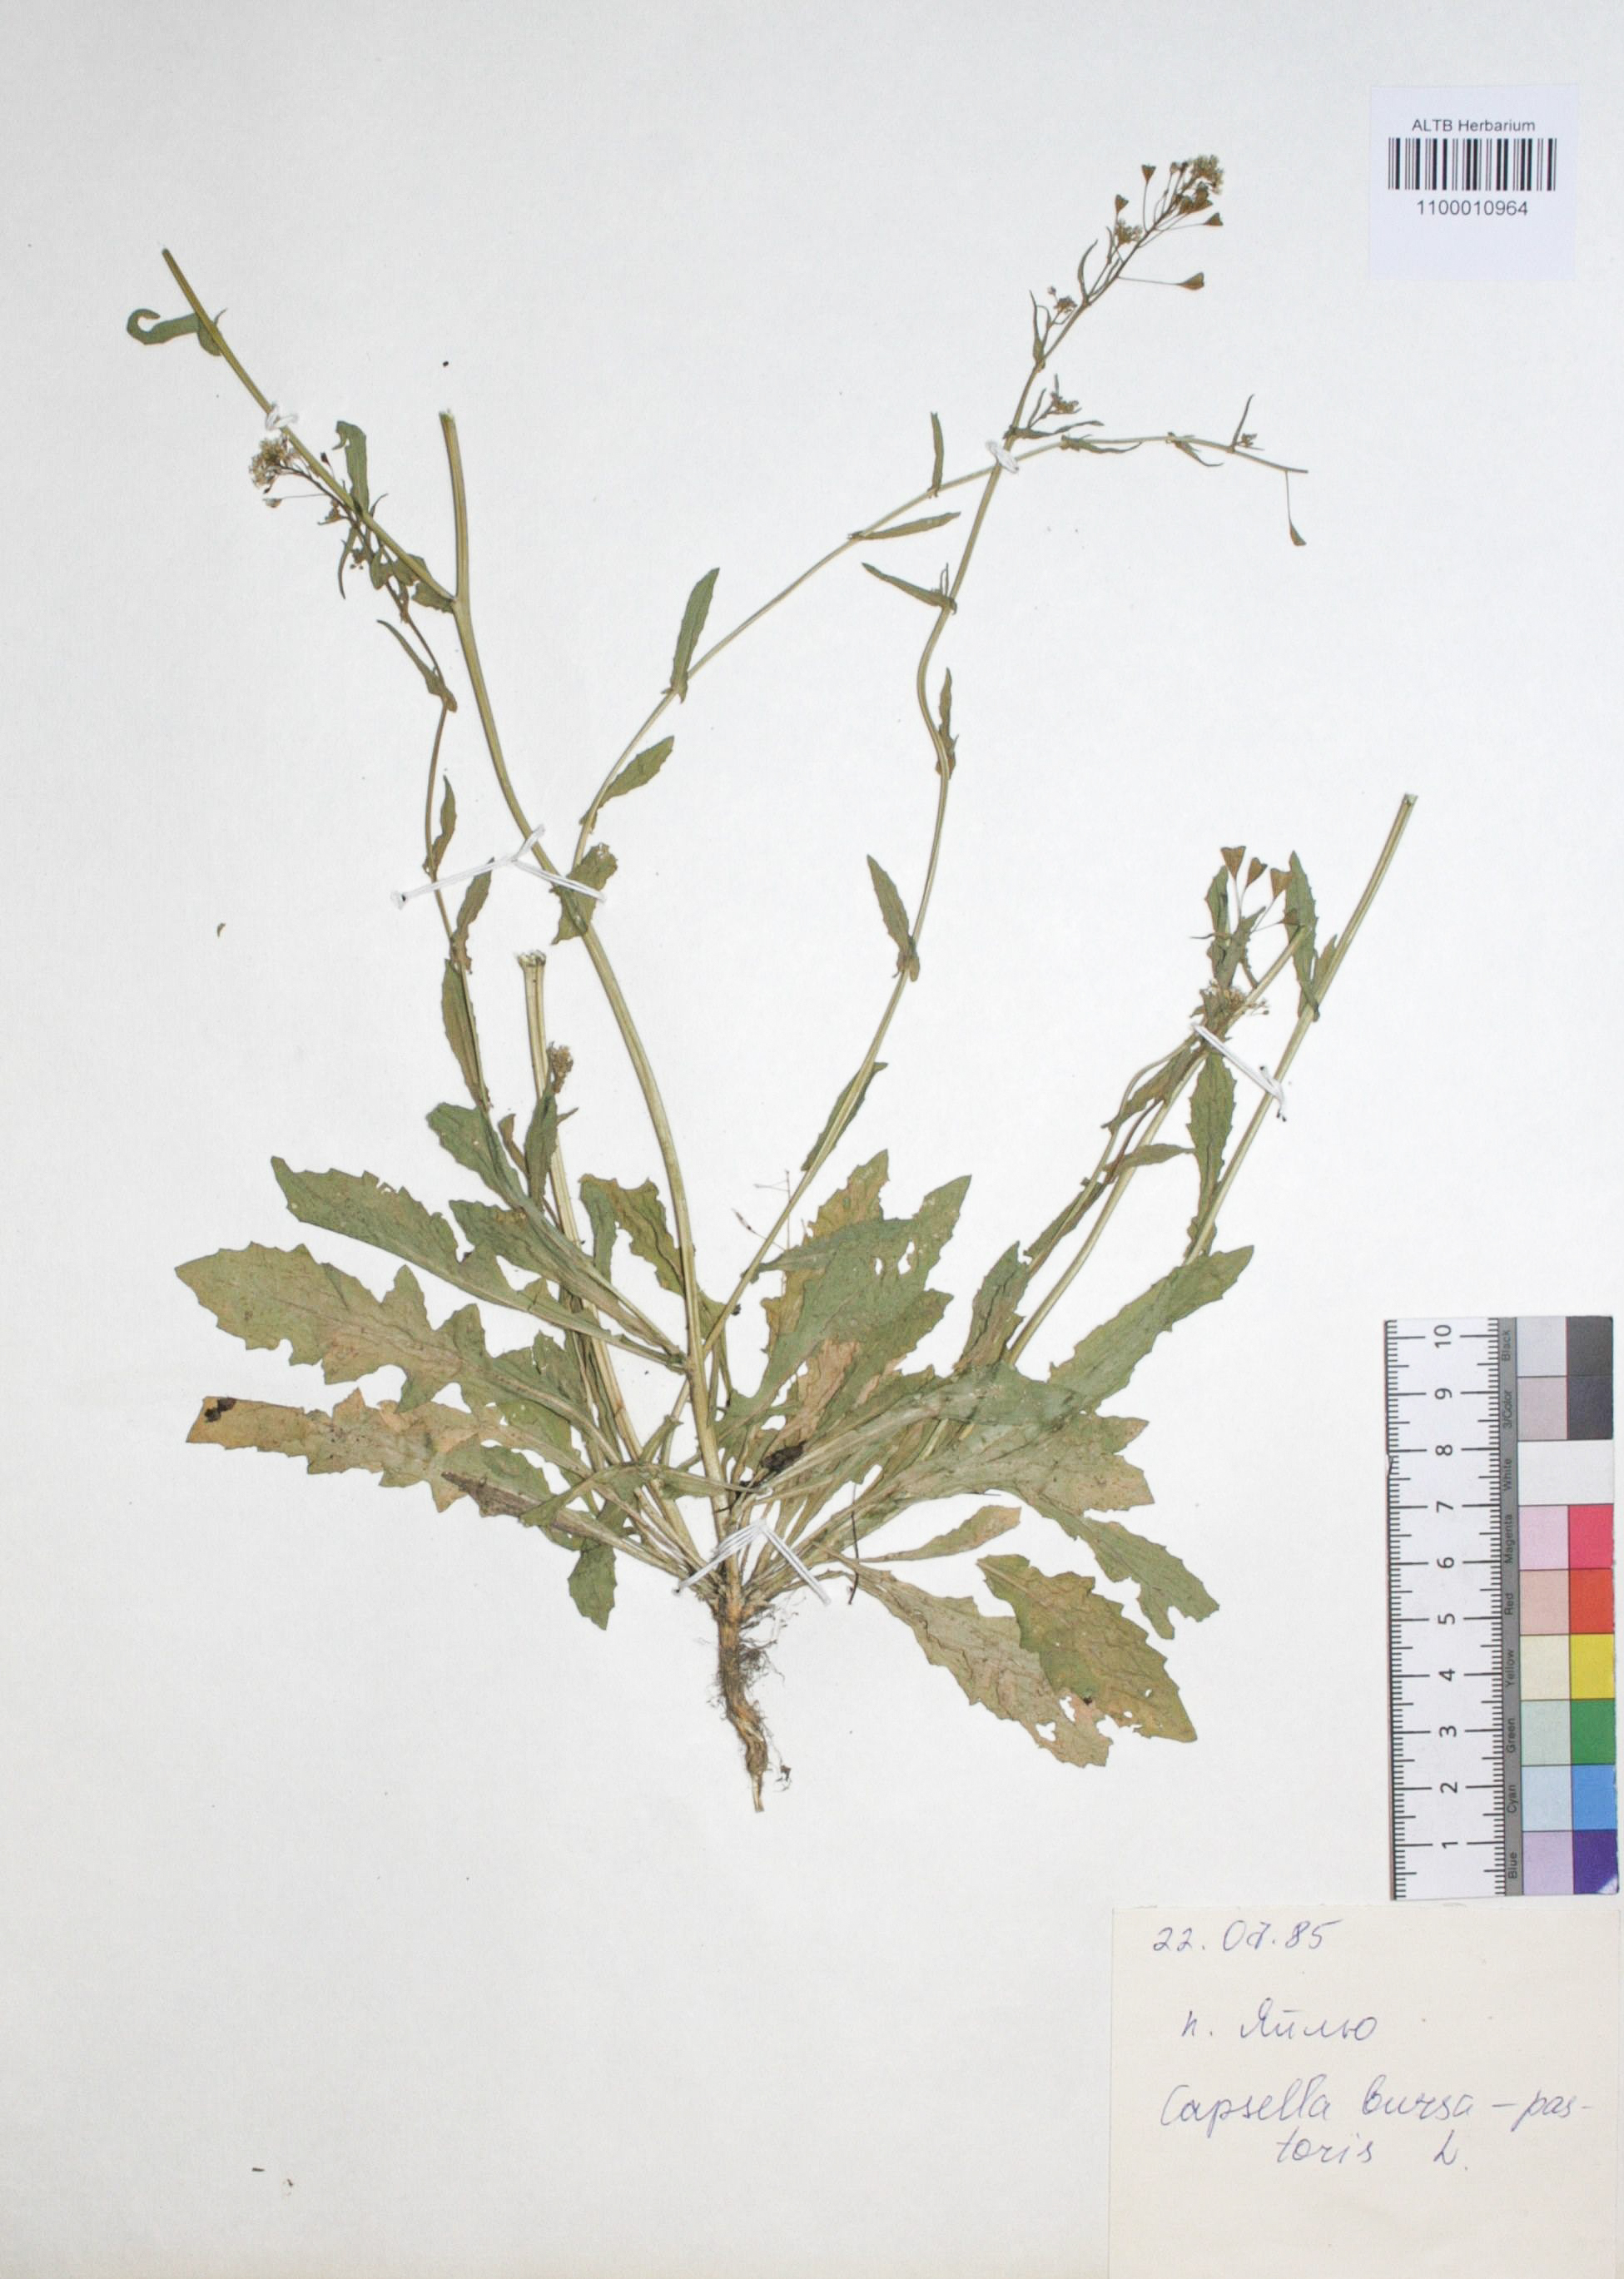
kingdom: Plantae
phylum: Tracheophyta
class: Magnoliopsida
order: Brassicales
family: Brassicaceae
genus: Capsella
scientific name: Capsella bursa-pastoris
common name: Shepherd's purse
